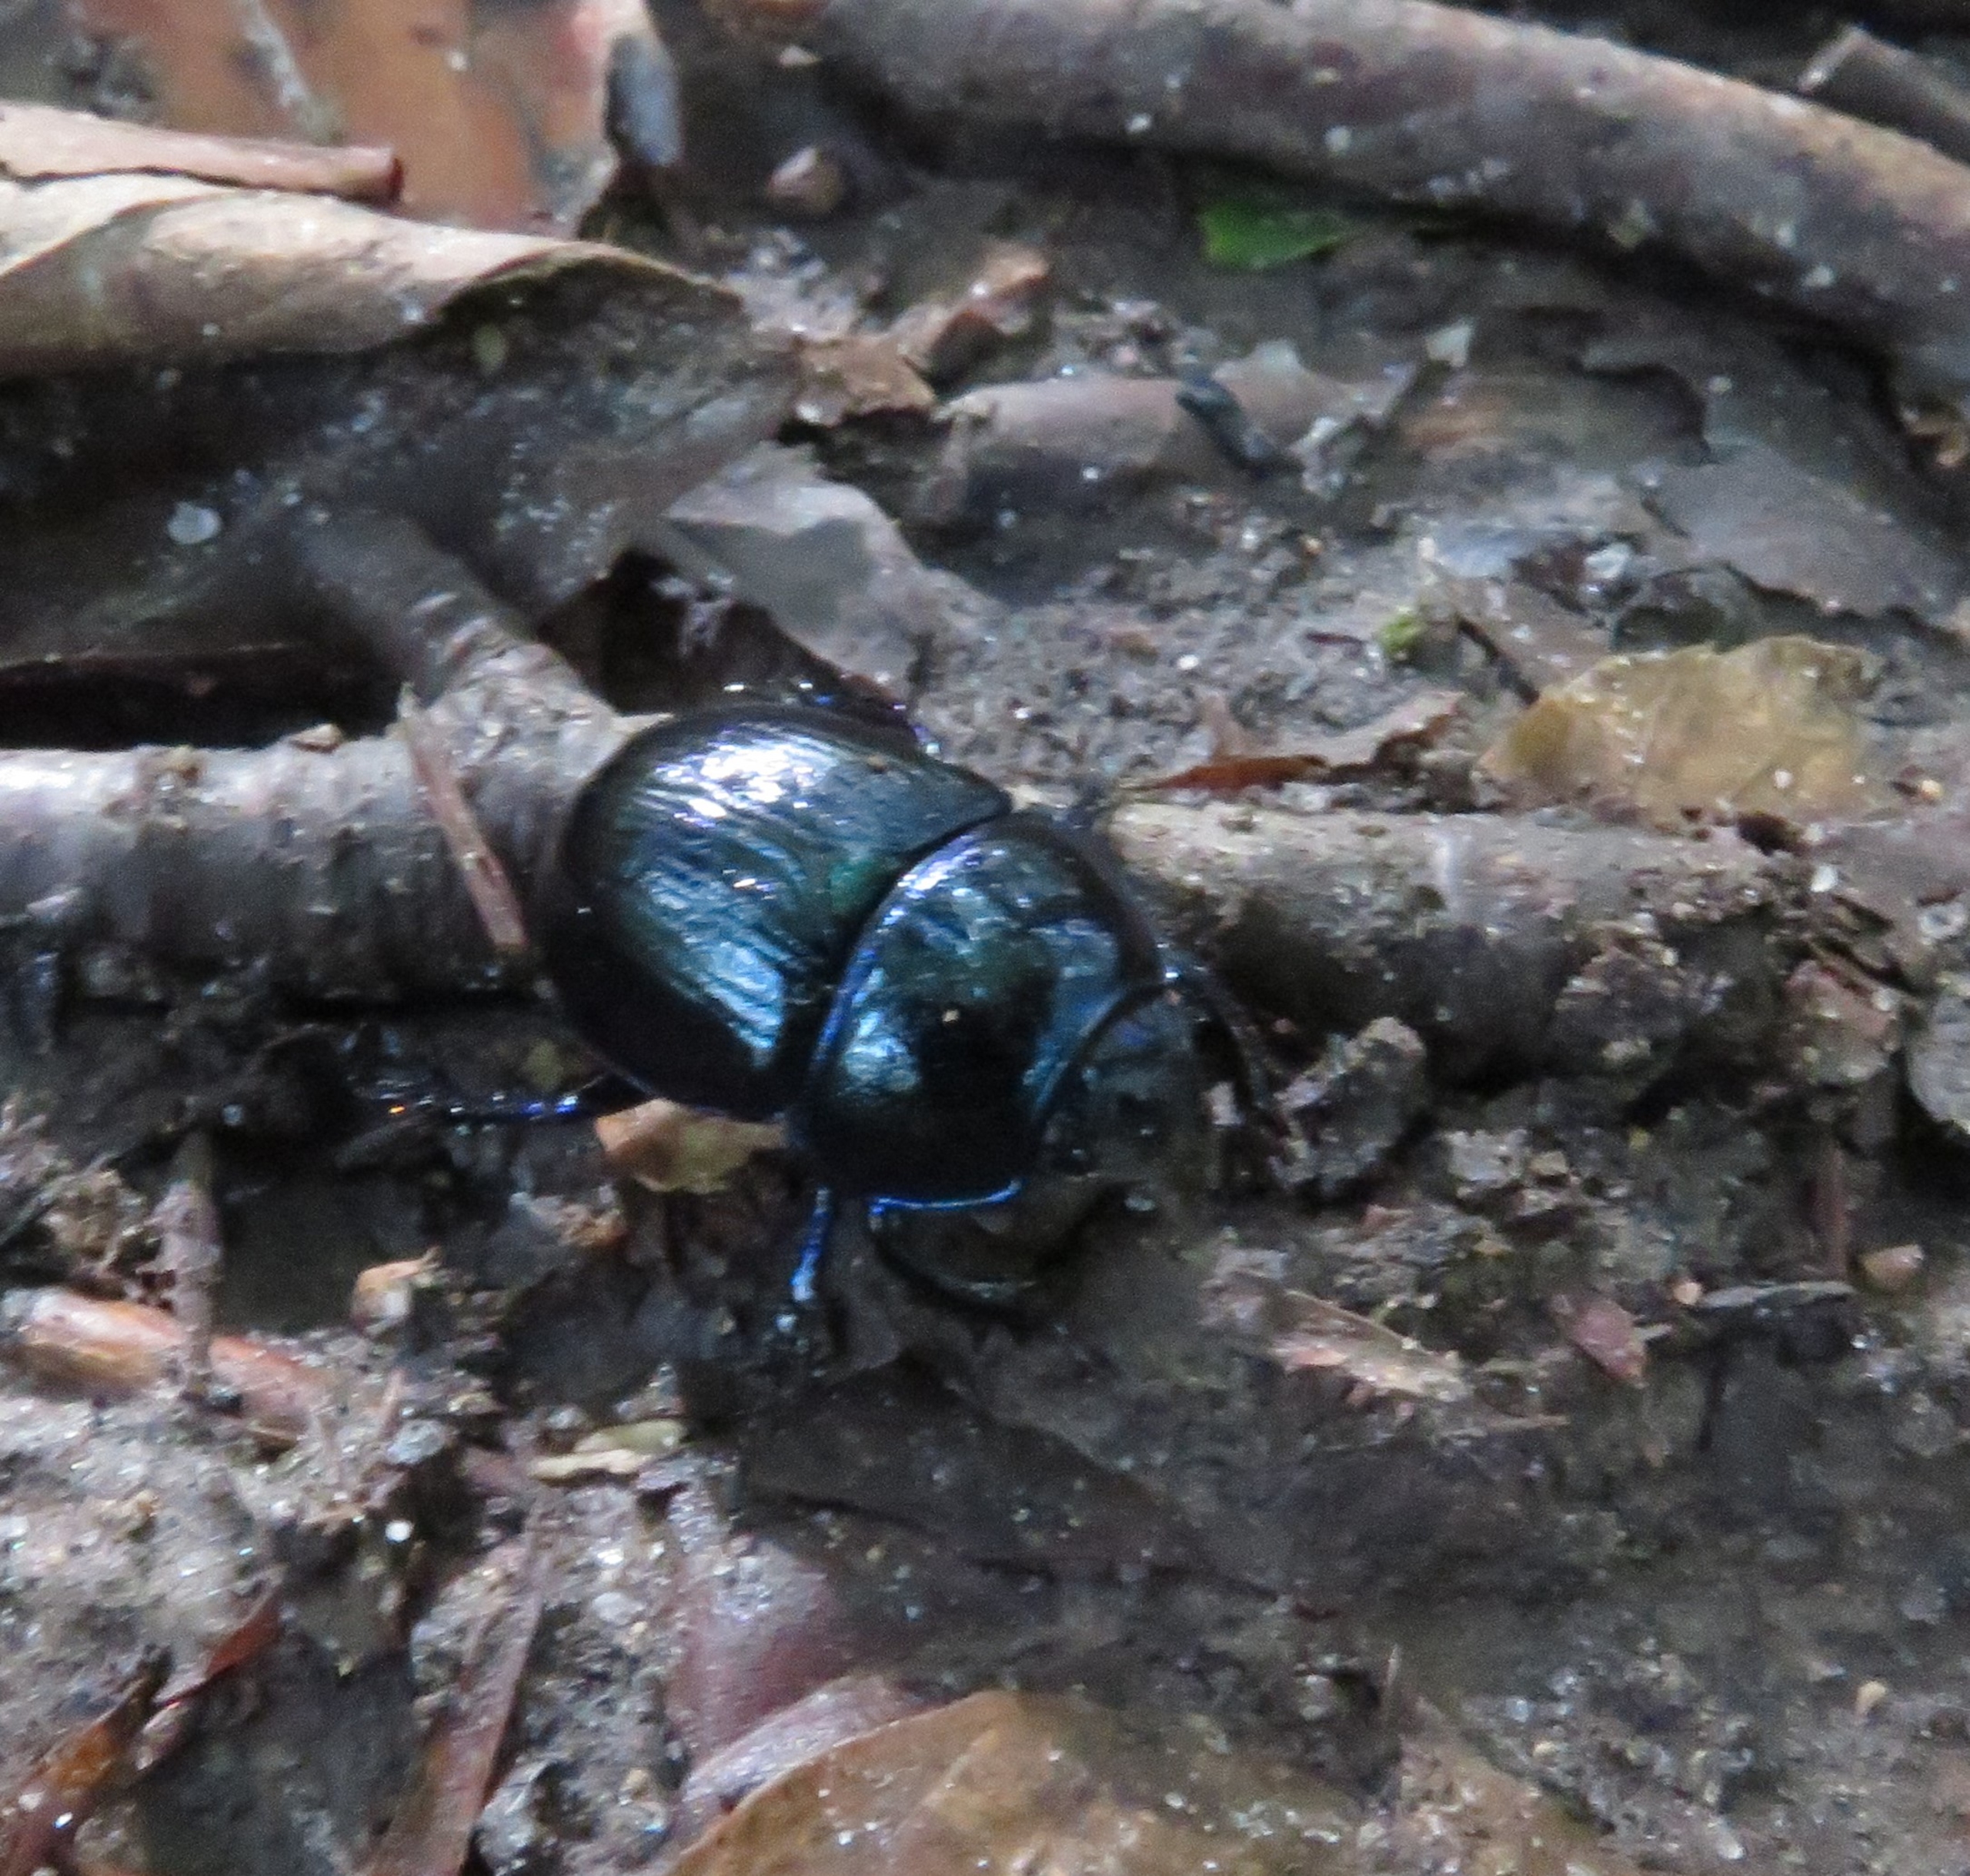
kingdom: Animalia
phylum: Arthropoda
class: Insecta
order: Coleoptera
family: Geotrupidae
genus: Anoplotrupes
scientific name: Anoplotrupes stercorosus
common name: Skovskarnbasse
